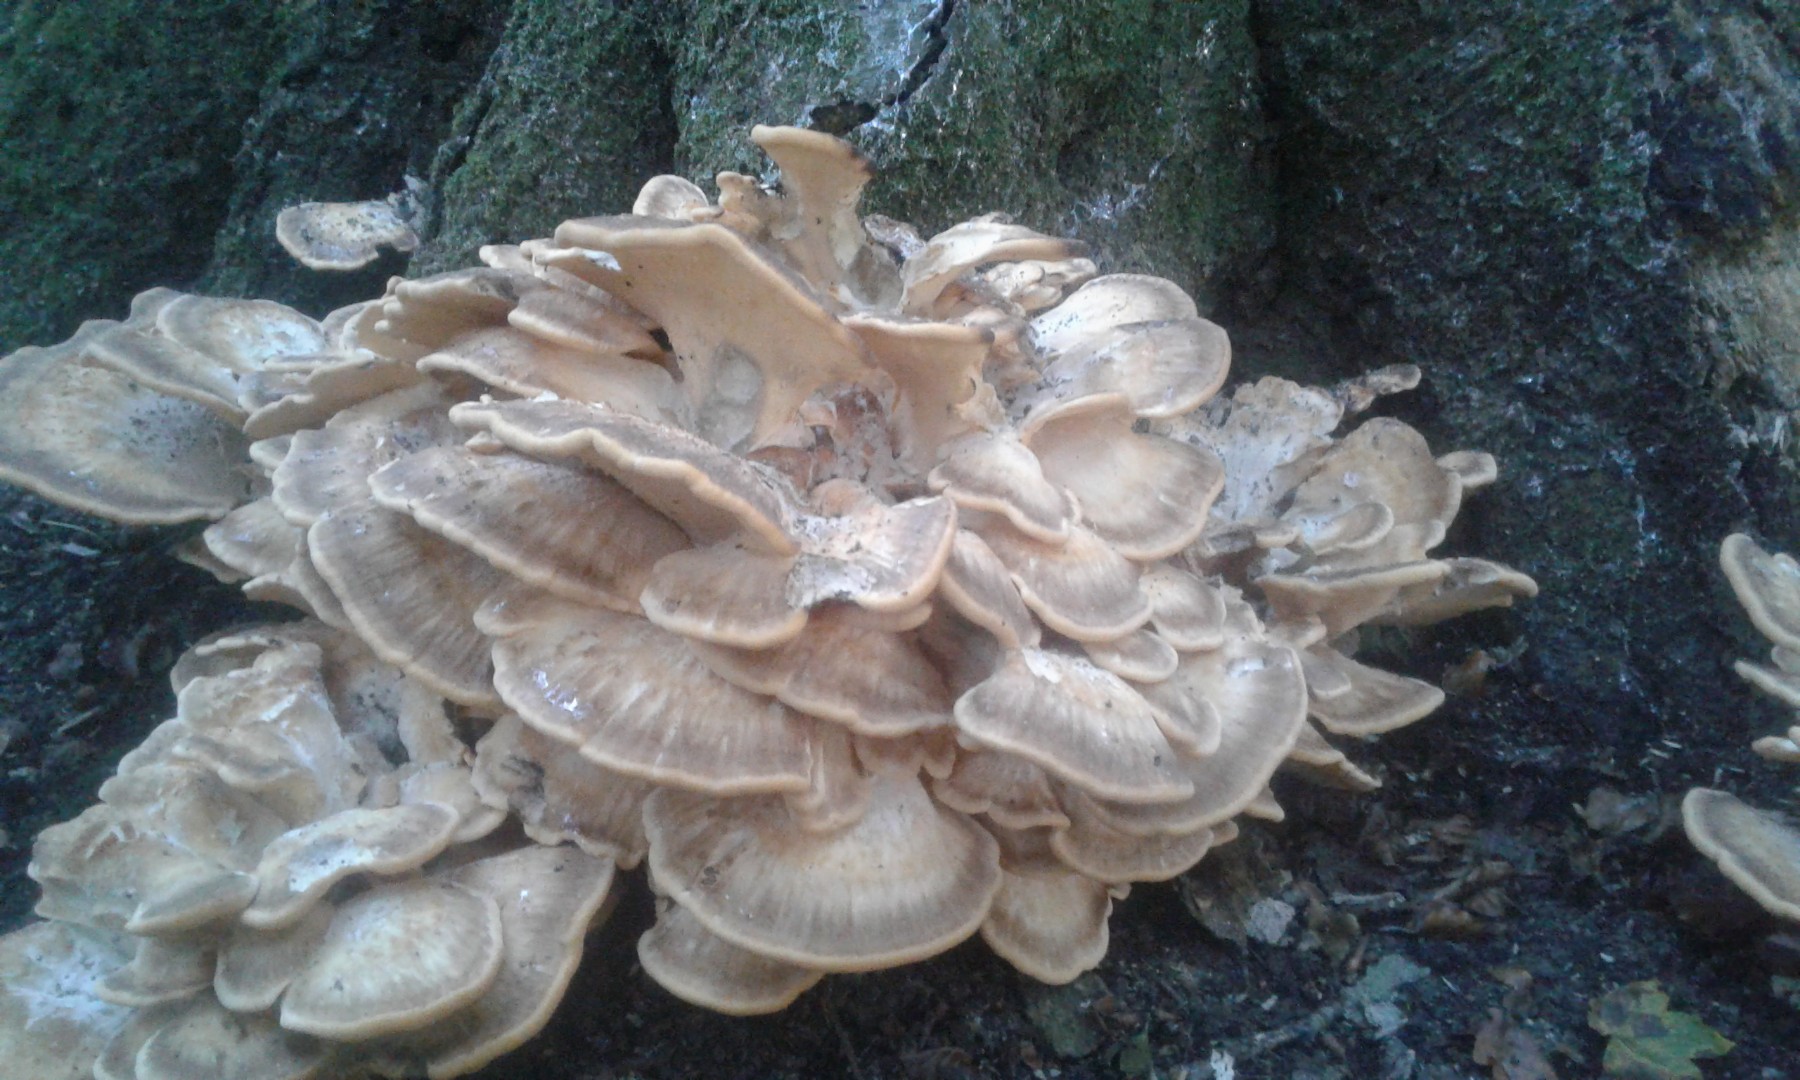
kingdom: Fungi
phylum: Basidiomycota
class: Agaricomycetes
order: Polyporales
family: Meripilaceae
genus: Meripilus
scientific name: Meripilus giganteus
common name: kæmpeporesvamp
